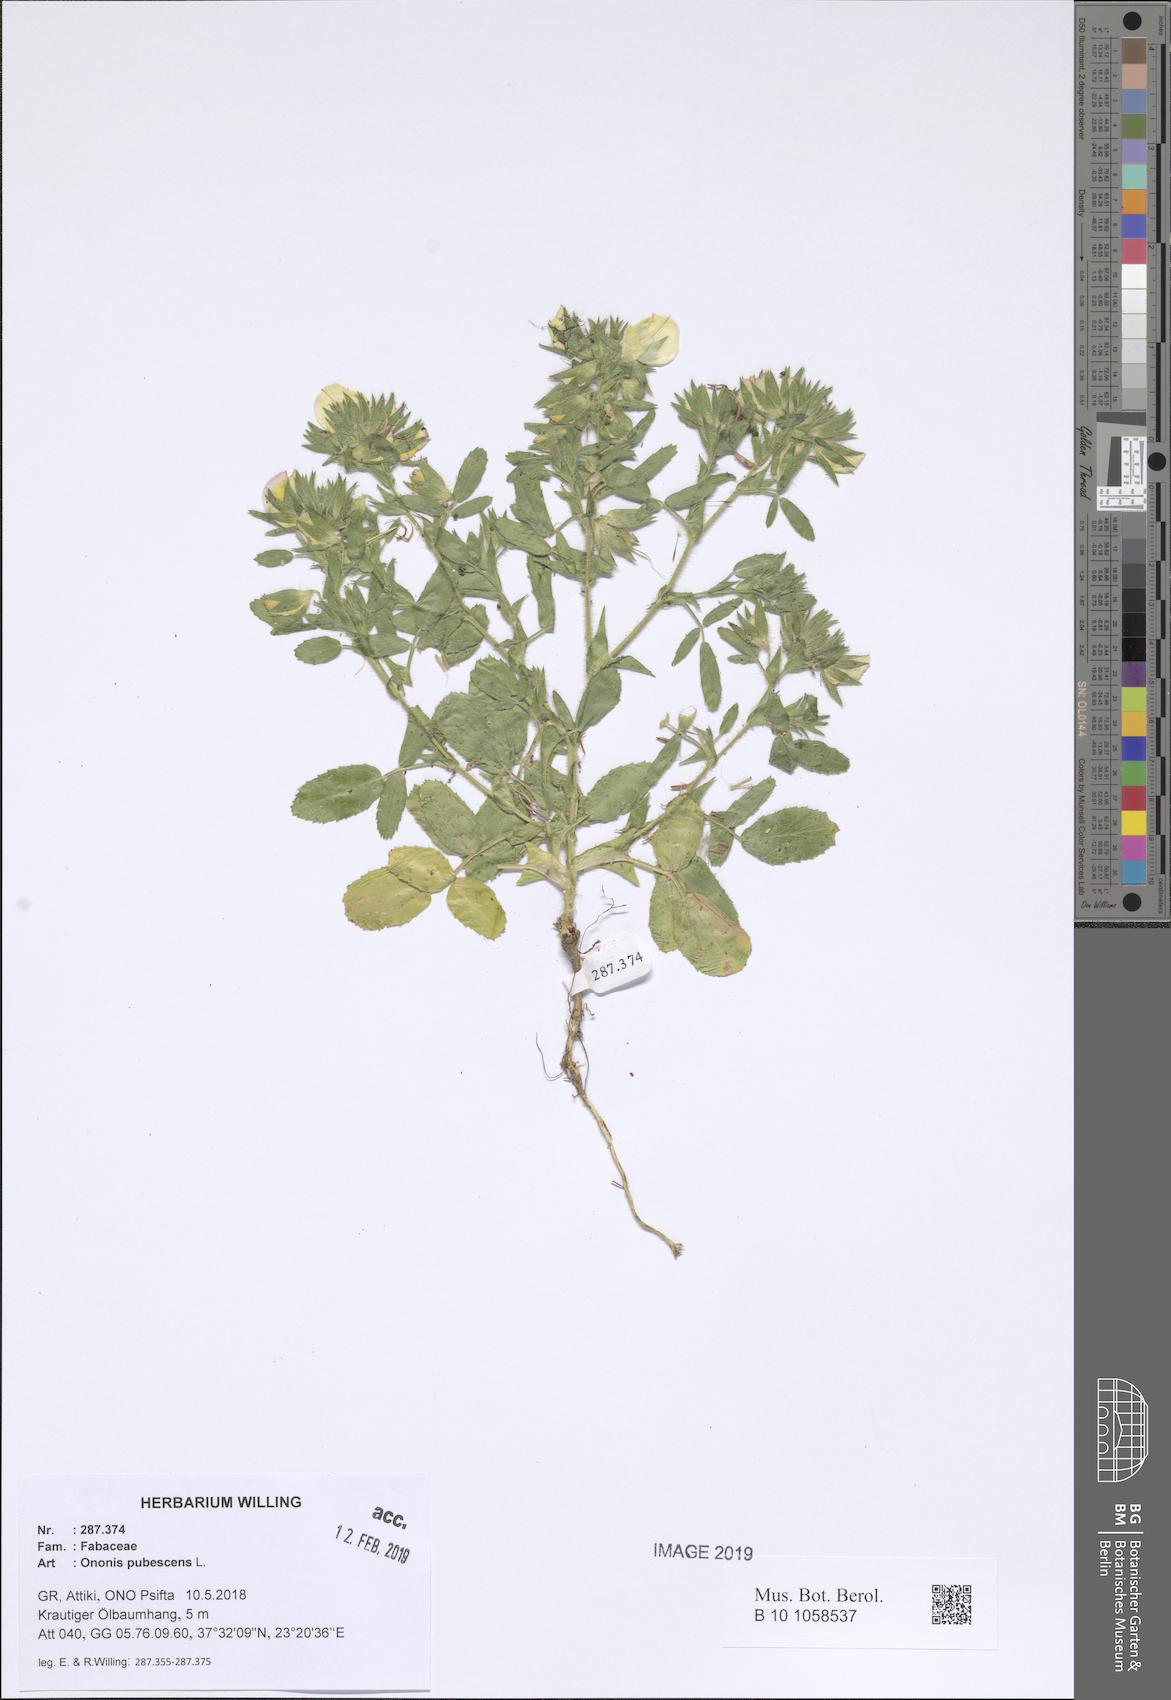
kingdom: Plantae
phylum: Tracheophyta
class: Magnoliopsida
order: Fabales
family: Fabaceae
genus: Ononis
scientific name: Ononis pubescens
